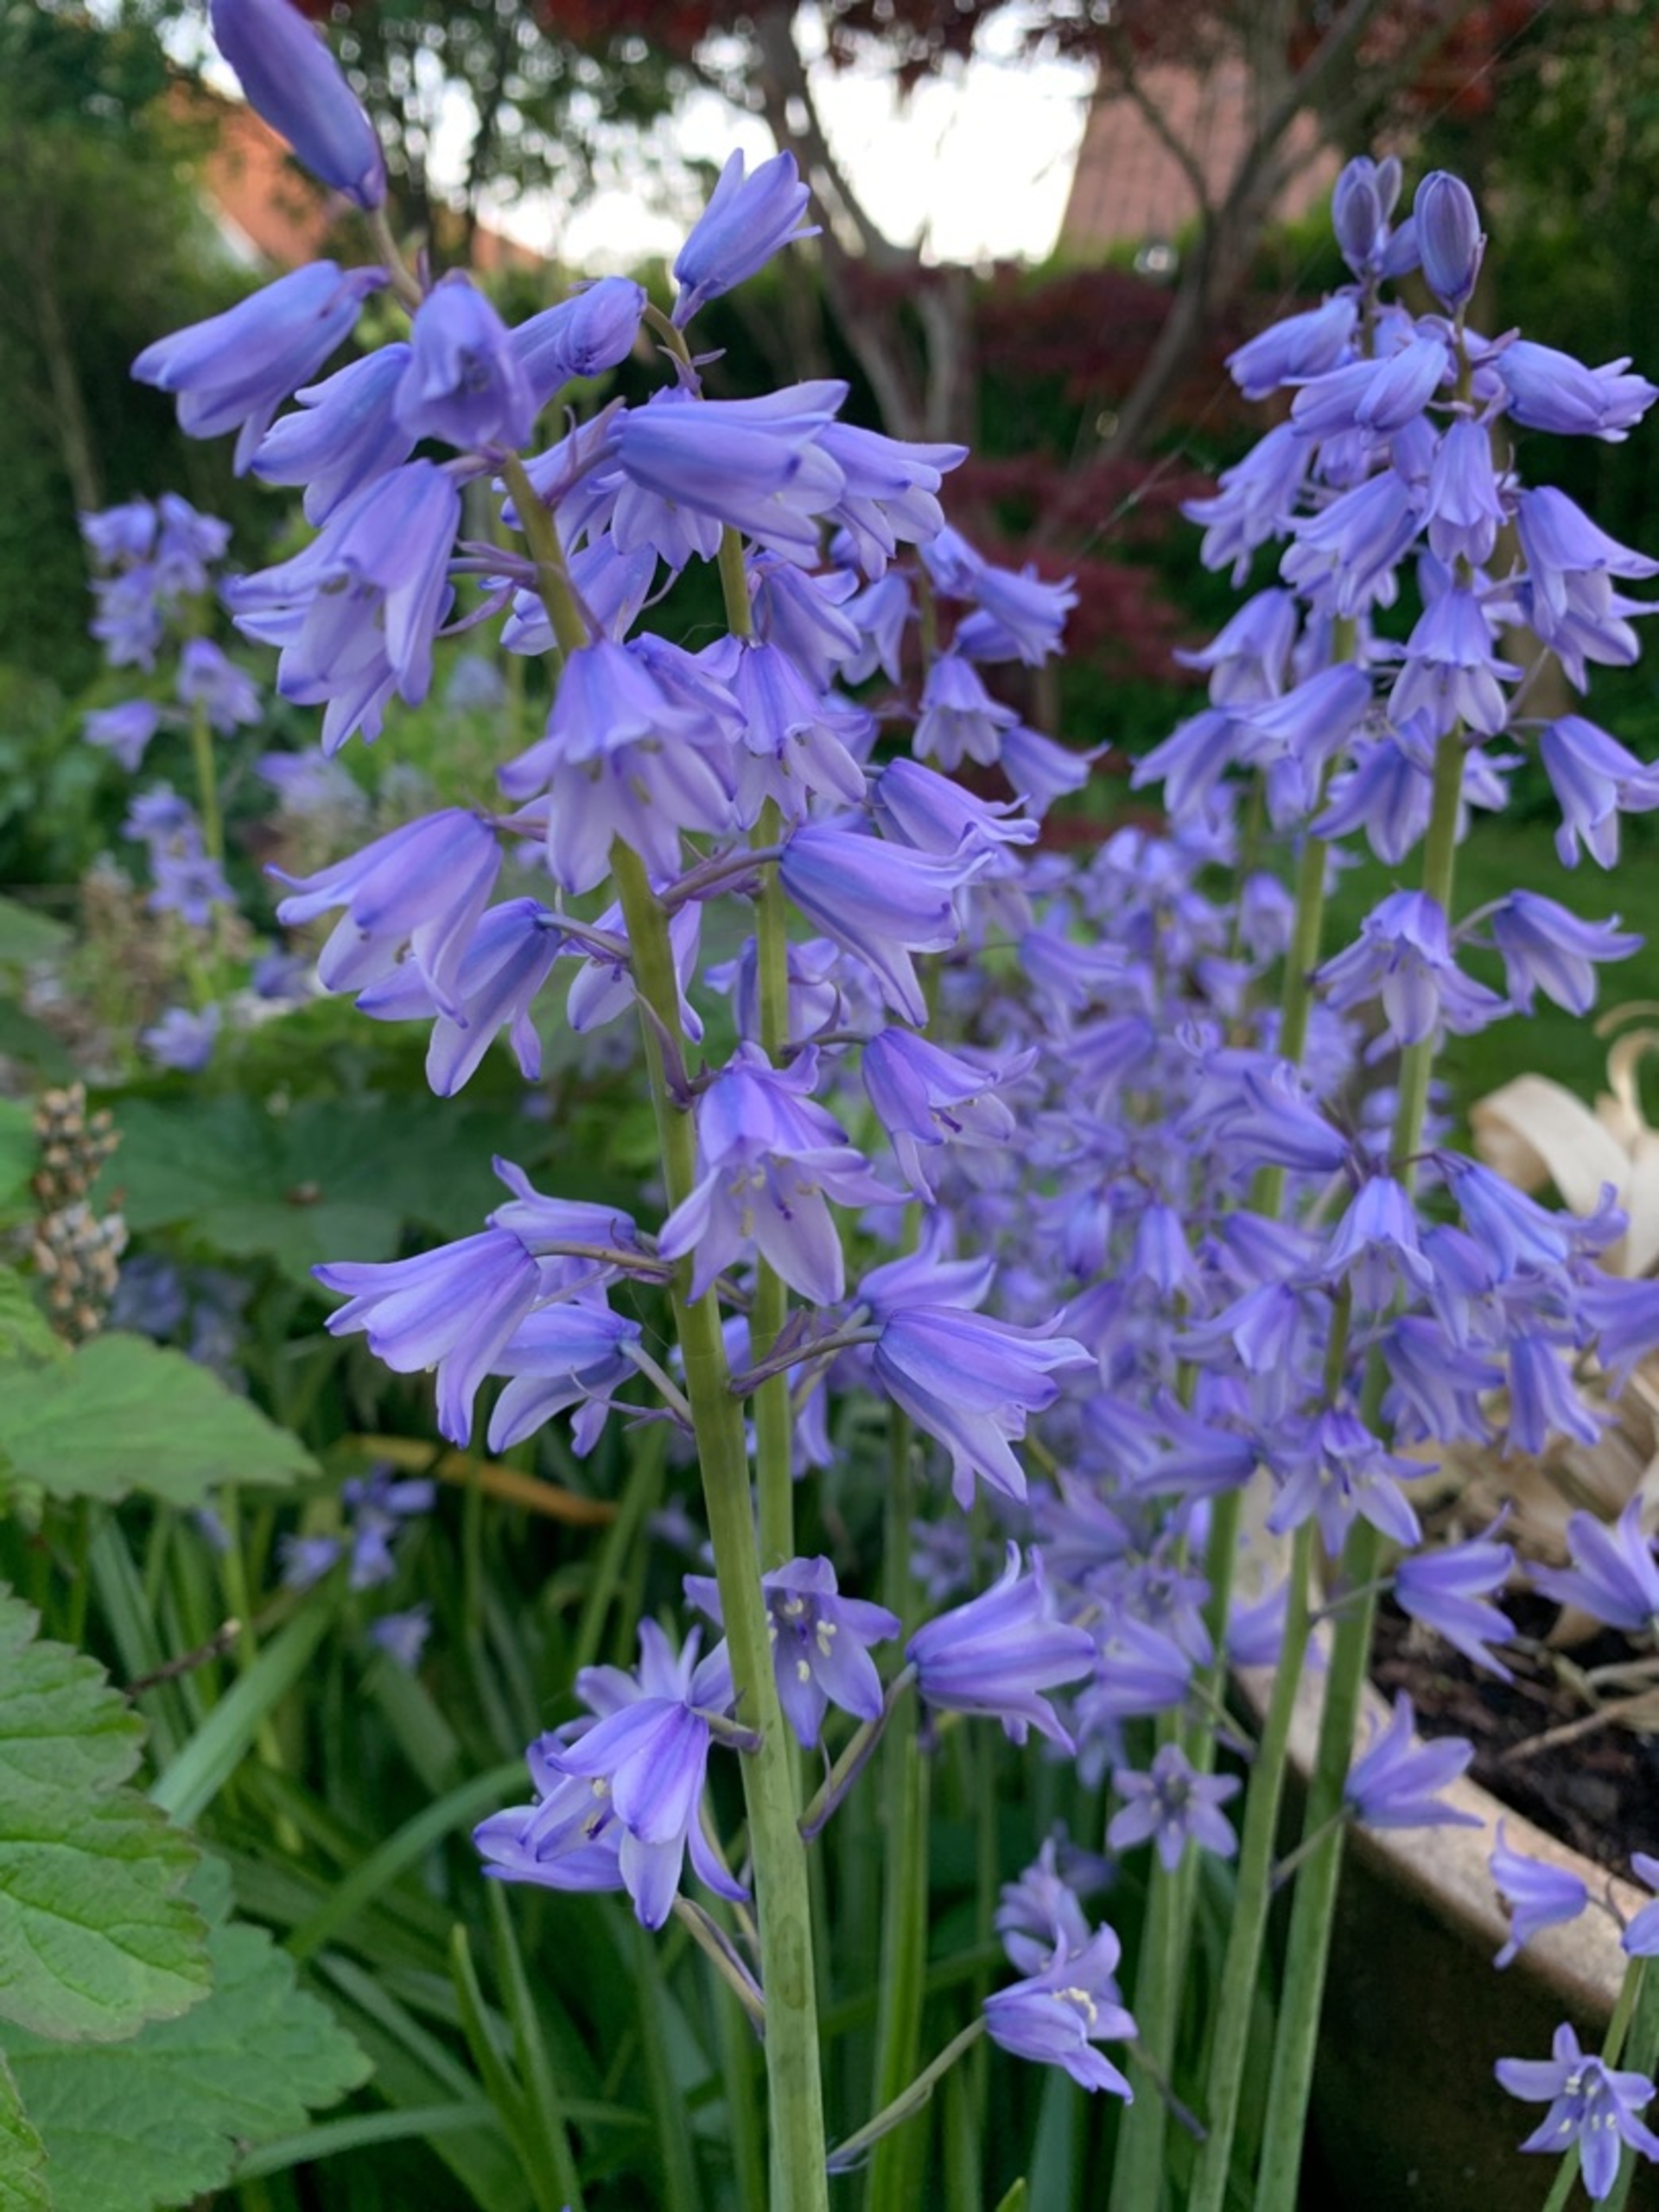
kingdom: Plantae
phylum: Tracheophyta
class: Liliopsida
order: Asparagales
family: Asparagaceae
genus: Hyacinthoides
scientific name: Hyacinthoides non-scripta
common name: Klokke-skilla
